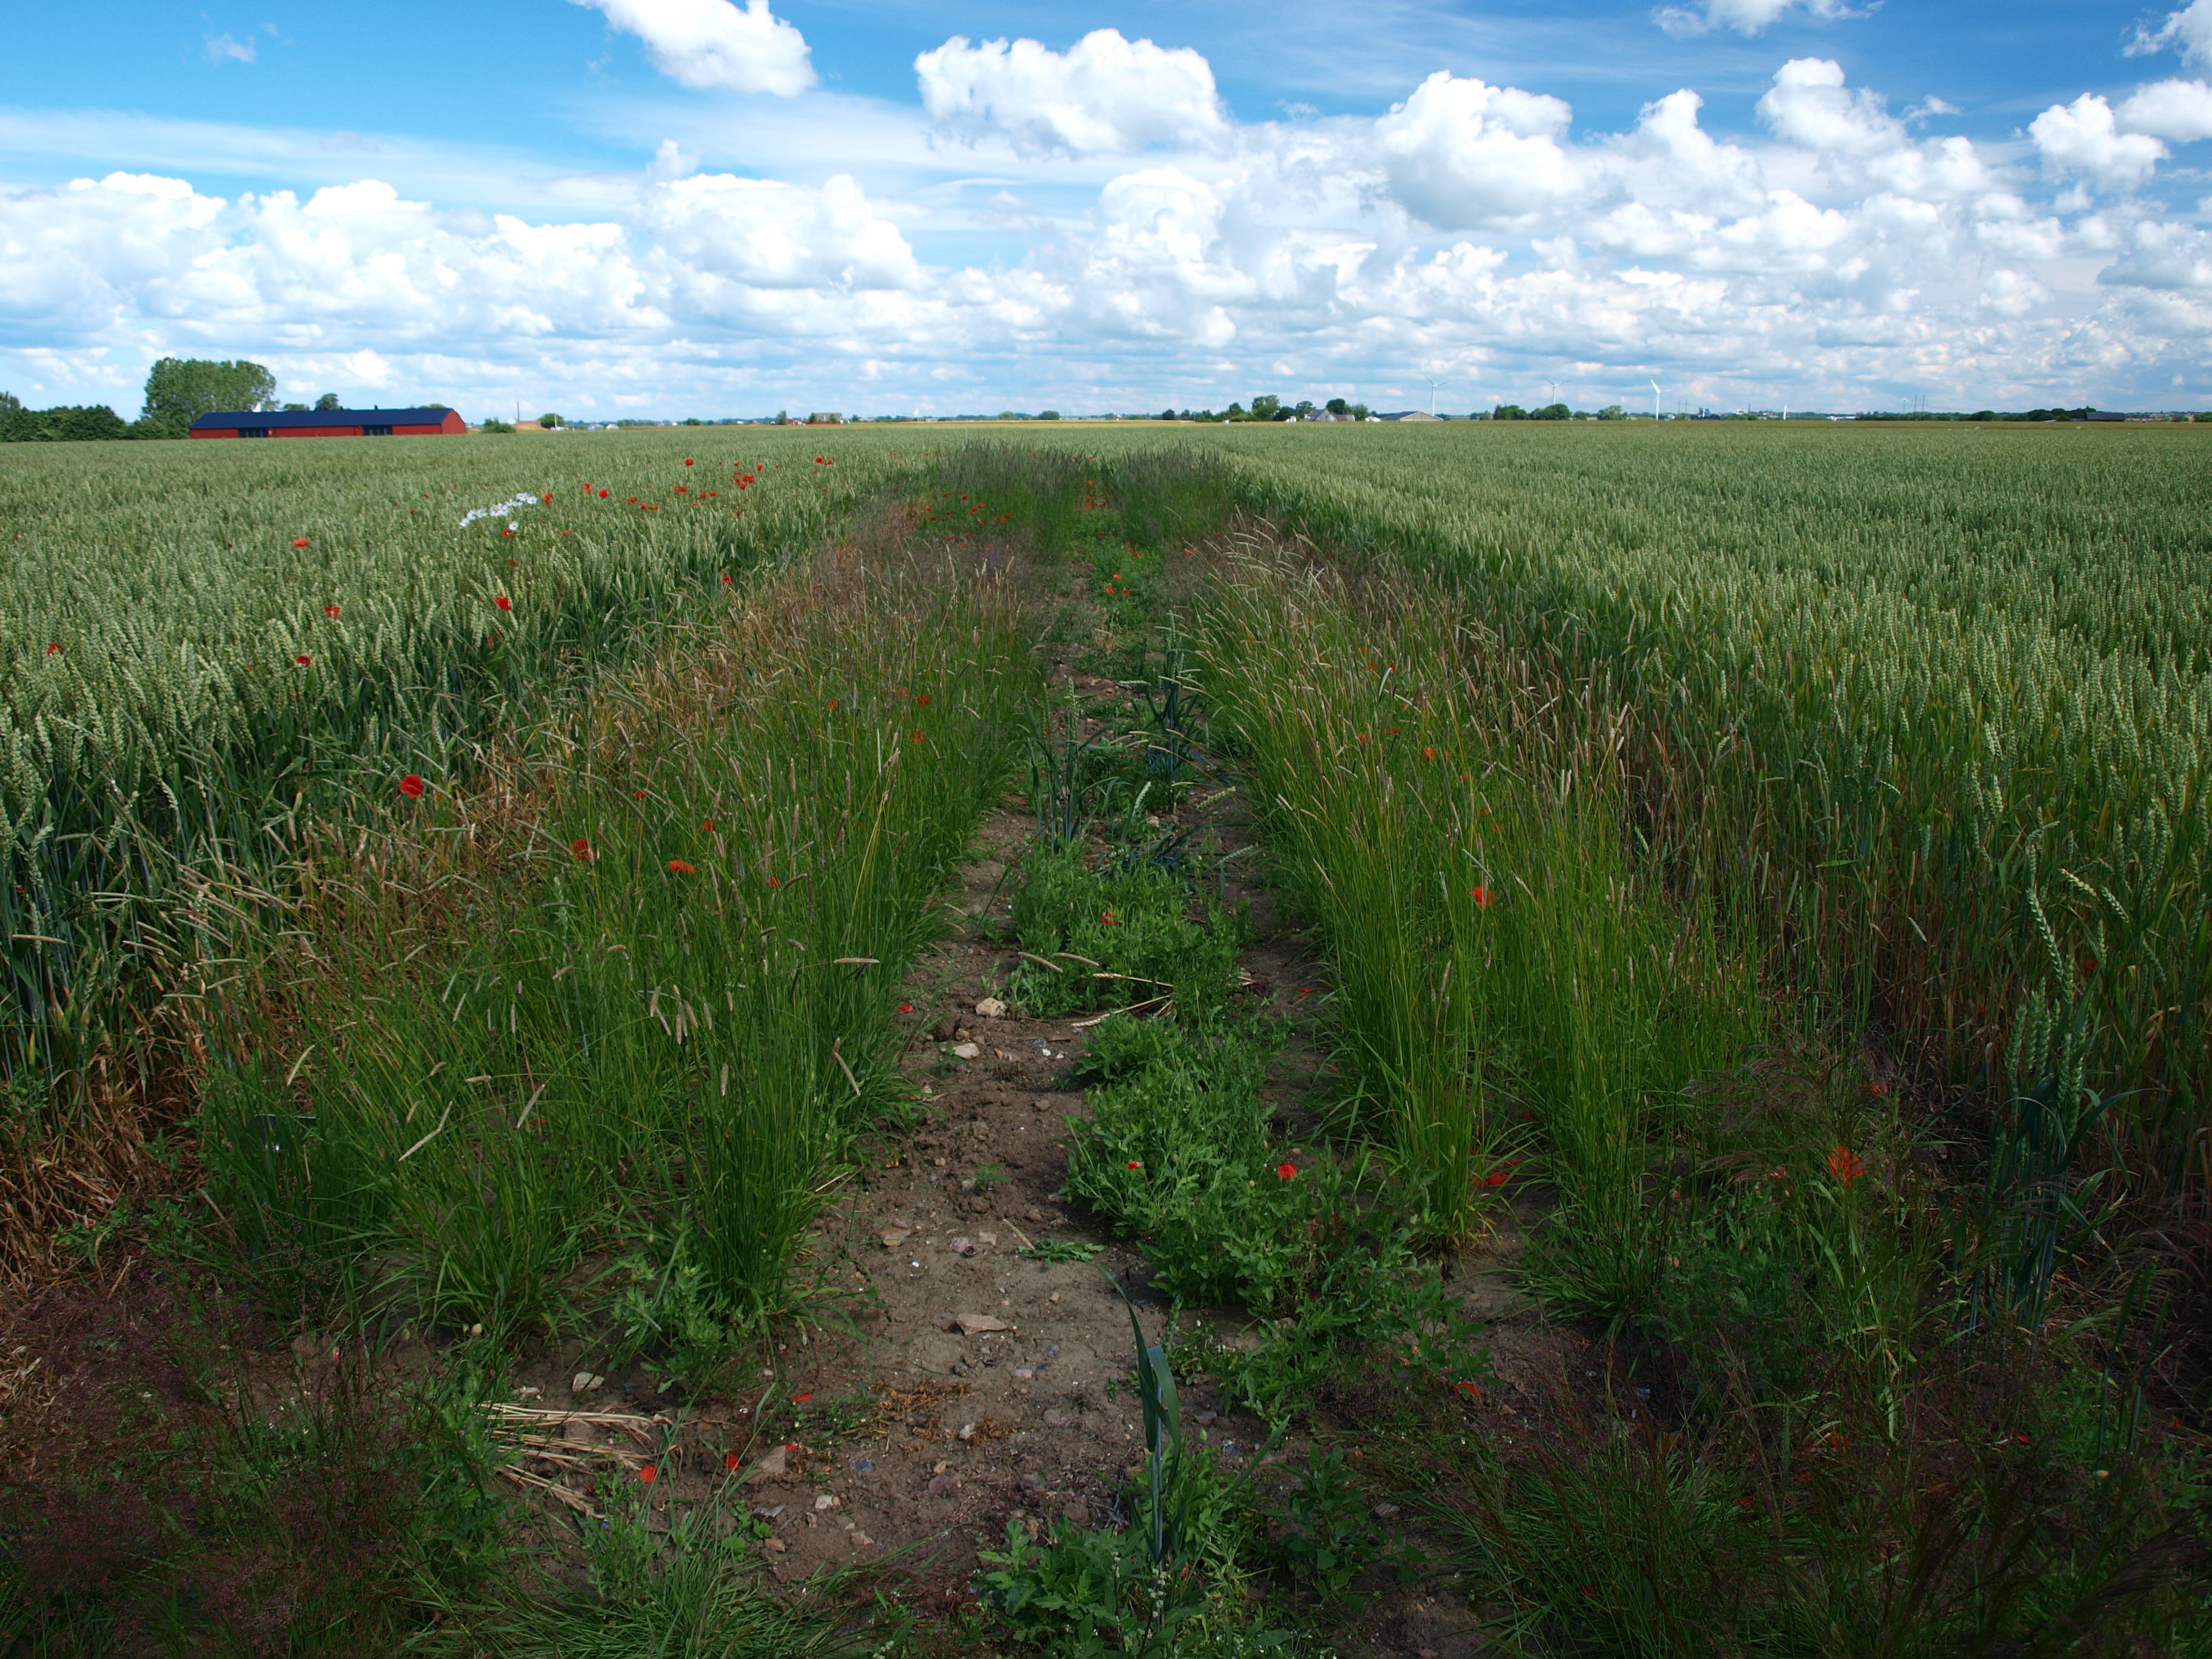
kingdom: Plantae
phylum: Tracheophyta
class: Liliopsida
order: Poales
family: Poaceae
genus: Alopecurus
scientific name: Alopecurus pratensis
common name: Meadow foxtail
